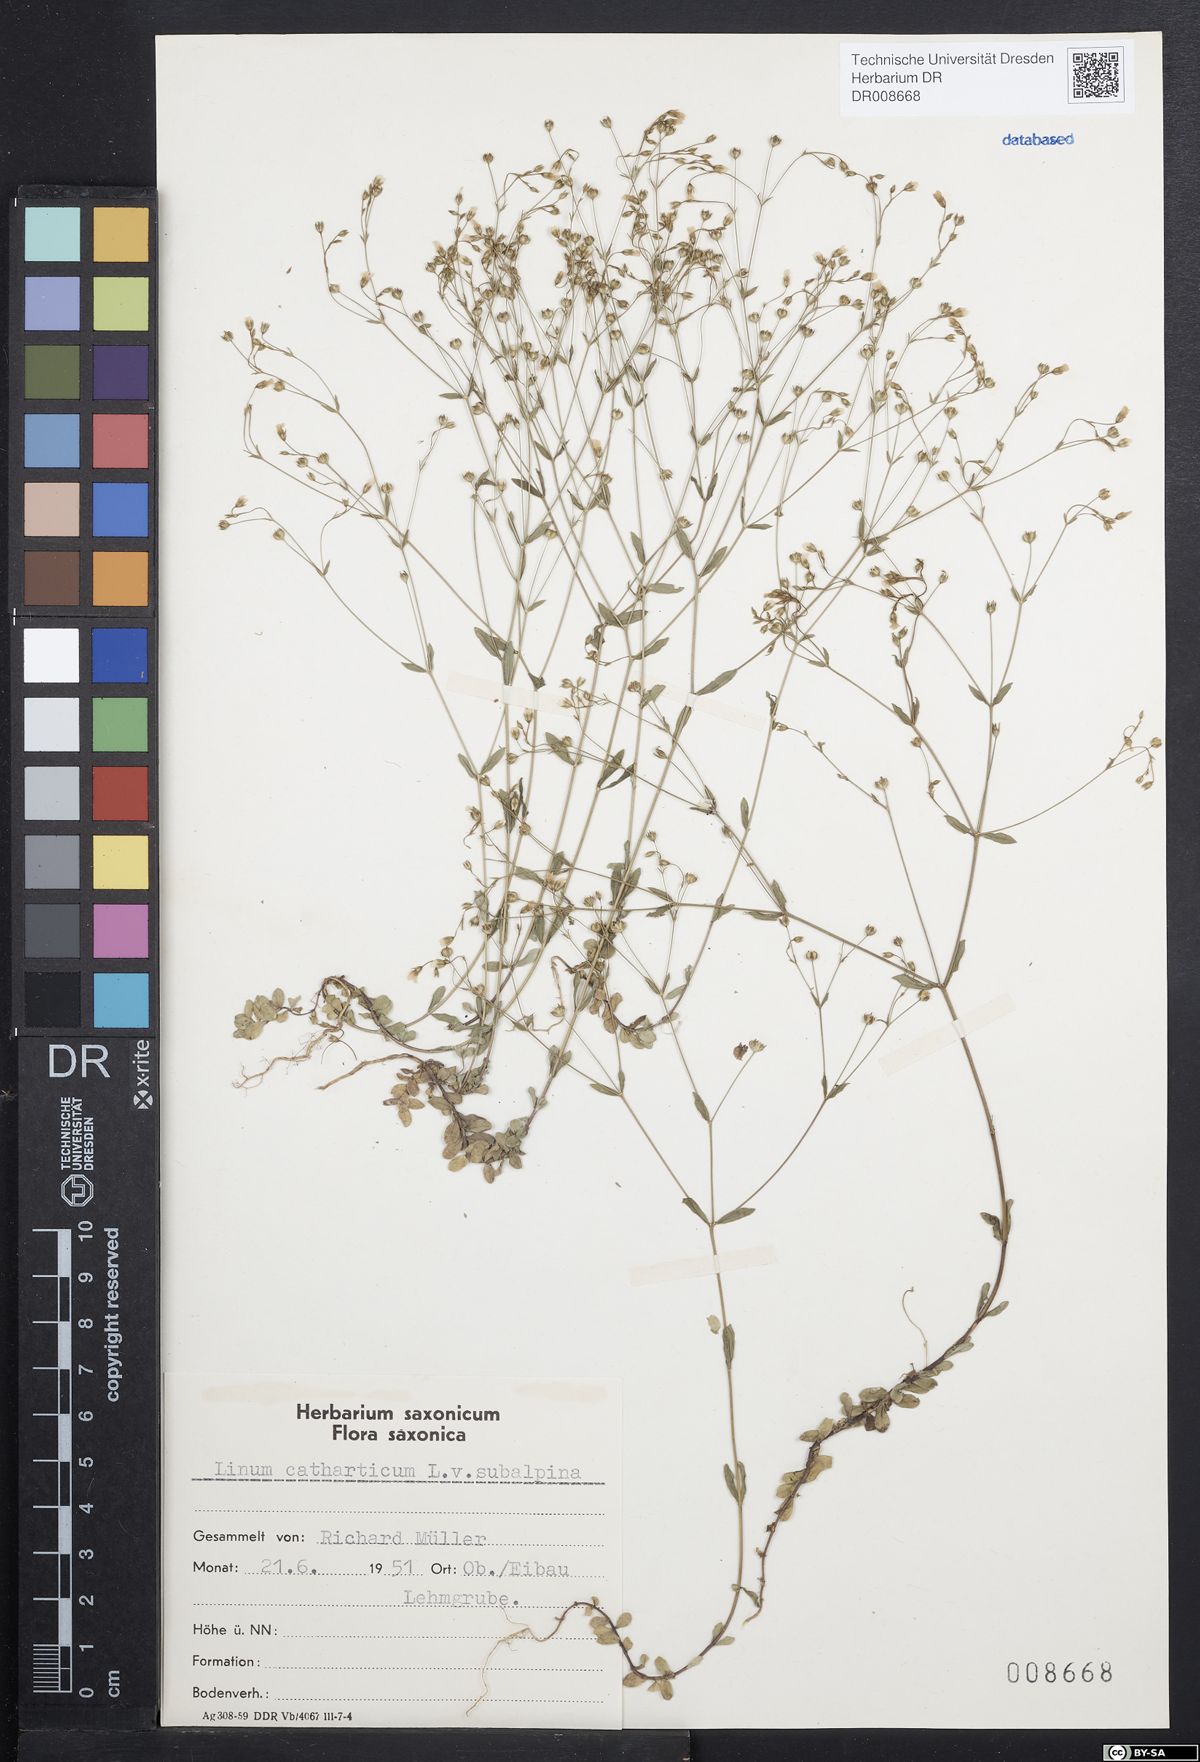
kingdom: Plantae
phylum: Tracheophyta
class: Magnoliopsida
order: Malpighiales
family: Linaceae
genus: Linum
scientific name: Linum catharticum
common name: Fairy flax
